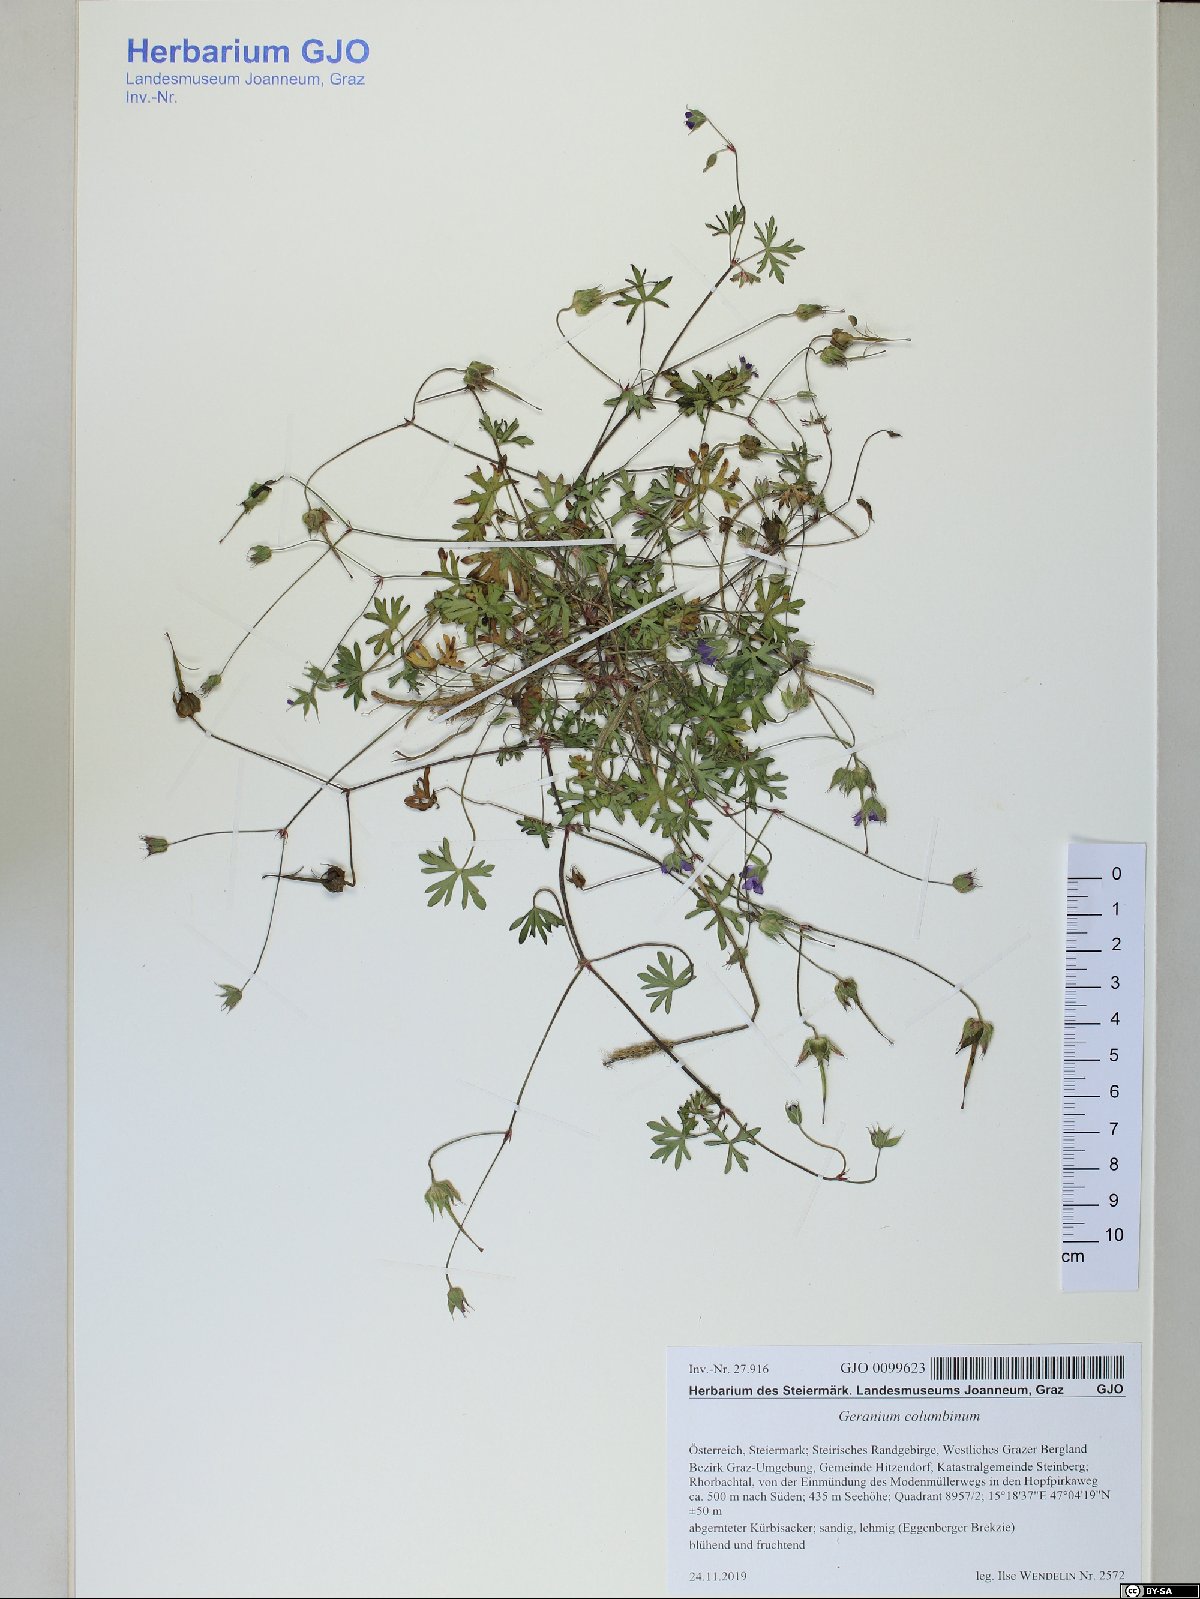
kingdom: Plantae
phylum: Tracheophyta
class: Magnoliopsida
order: Geraniales
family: Geraniaceae
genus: Geranium
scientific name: Geranium columbinum
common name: Long-stalked crane's-bill
